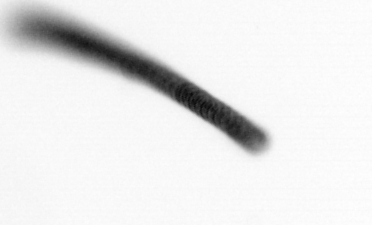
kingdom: Chromista
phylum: Ochrophyta
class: Bacillariophyceae
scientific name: Bacillariophyceae
